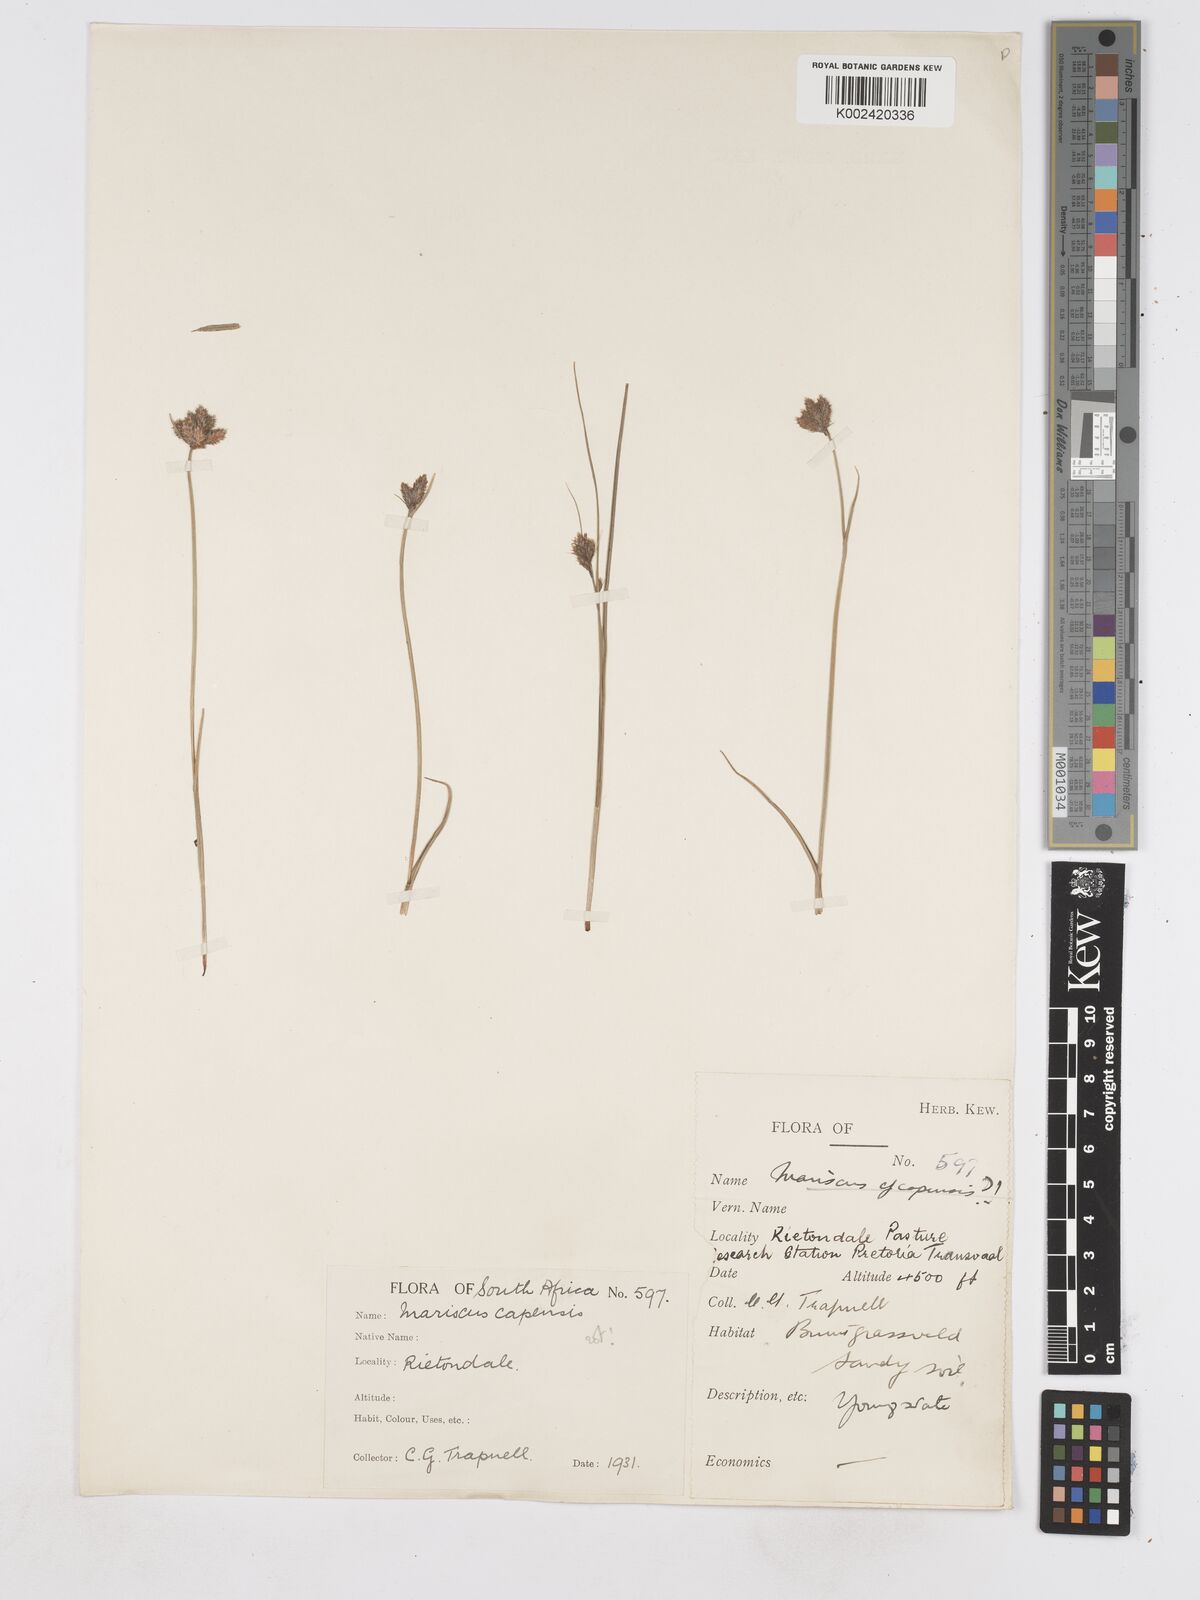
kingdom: Plantae
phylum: Tracheophyta
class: Liliopsida
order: Poales
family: Cyperaceae
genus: Fuirena
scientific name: Fuirena
